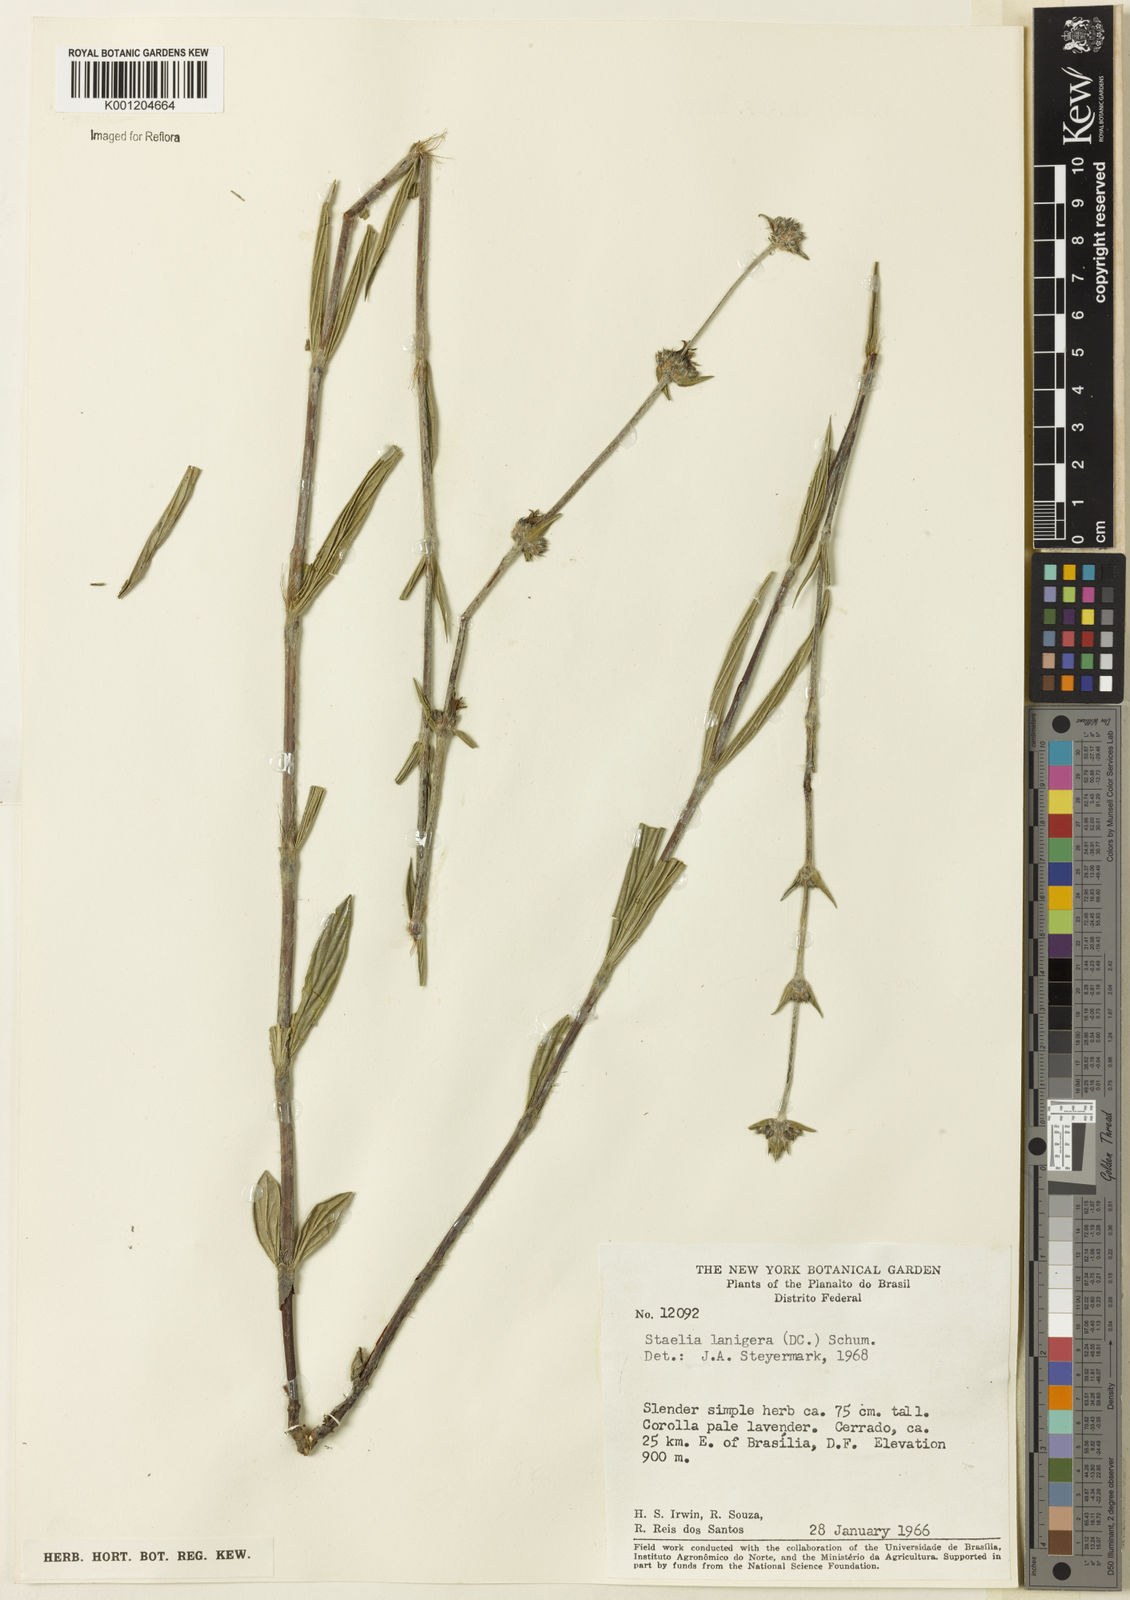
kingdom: Plantae
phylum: Tracheophyta
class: Magnoliopsida
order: Gentianales
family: Rubiaceae
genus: Planaltina
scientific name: Planaltina capitata
